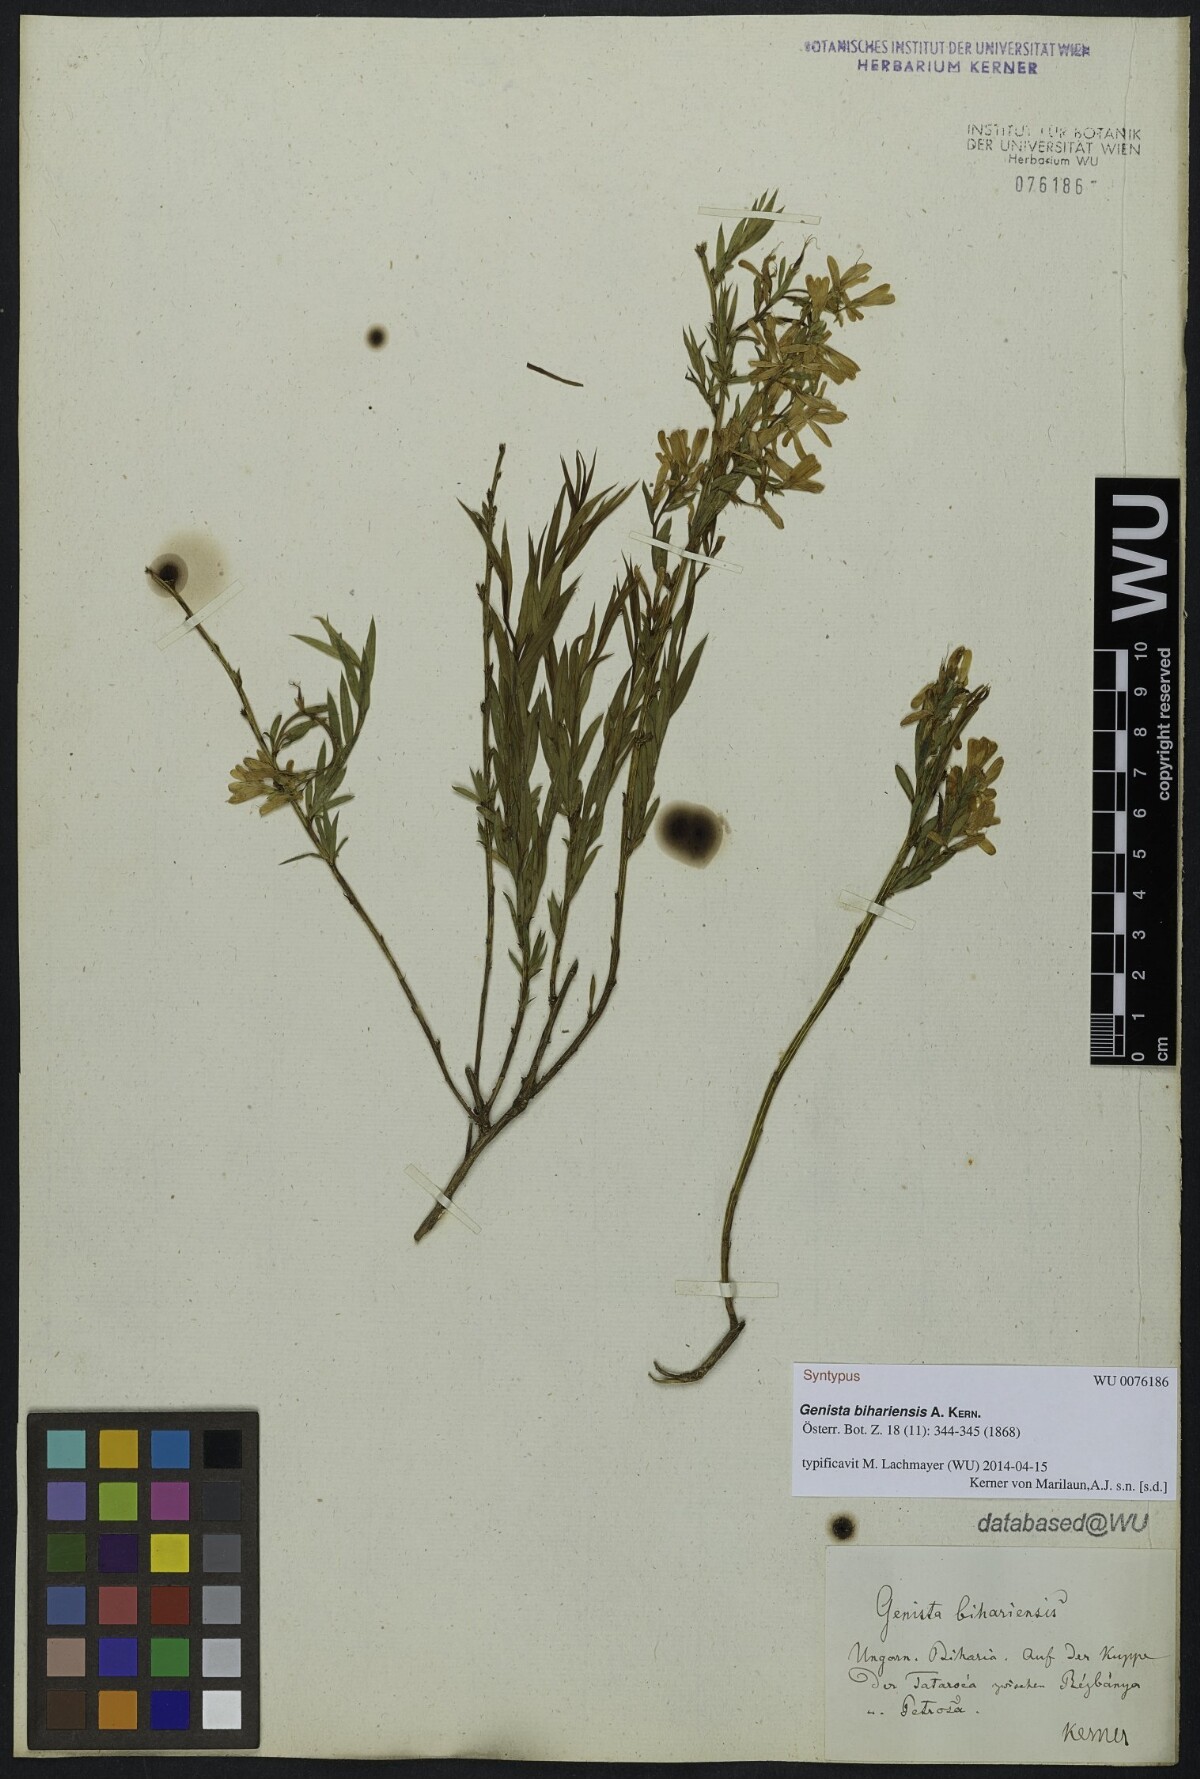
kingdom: Plantae
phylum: Tracheophyta
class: Magnoliopsida
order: Fabales
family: Fabaceae
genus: Genista
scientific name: Genista
